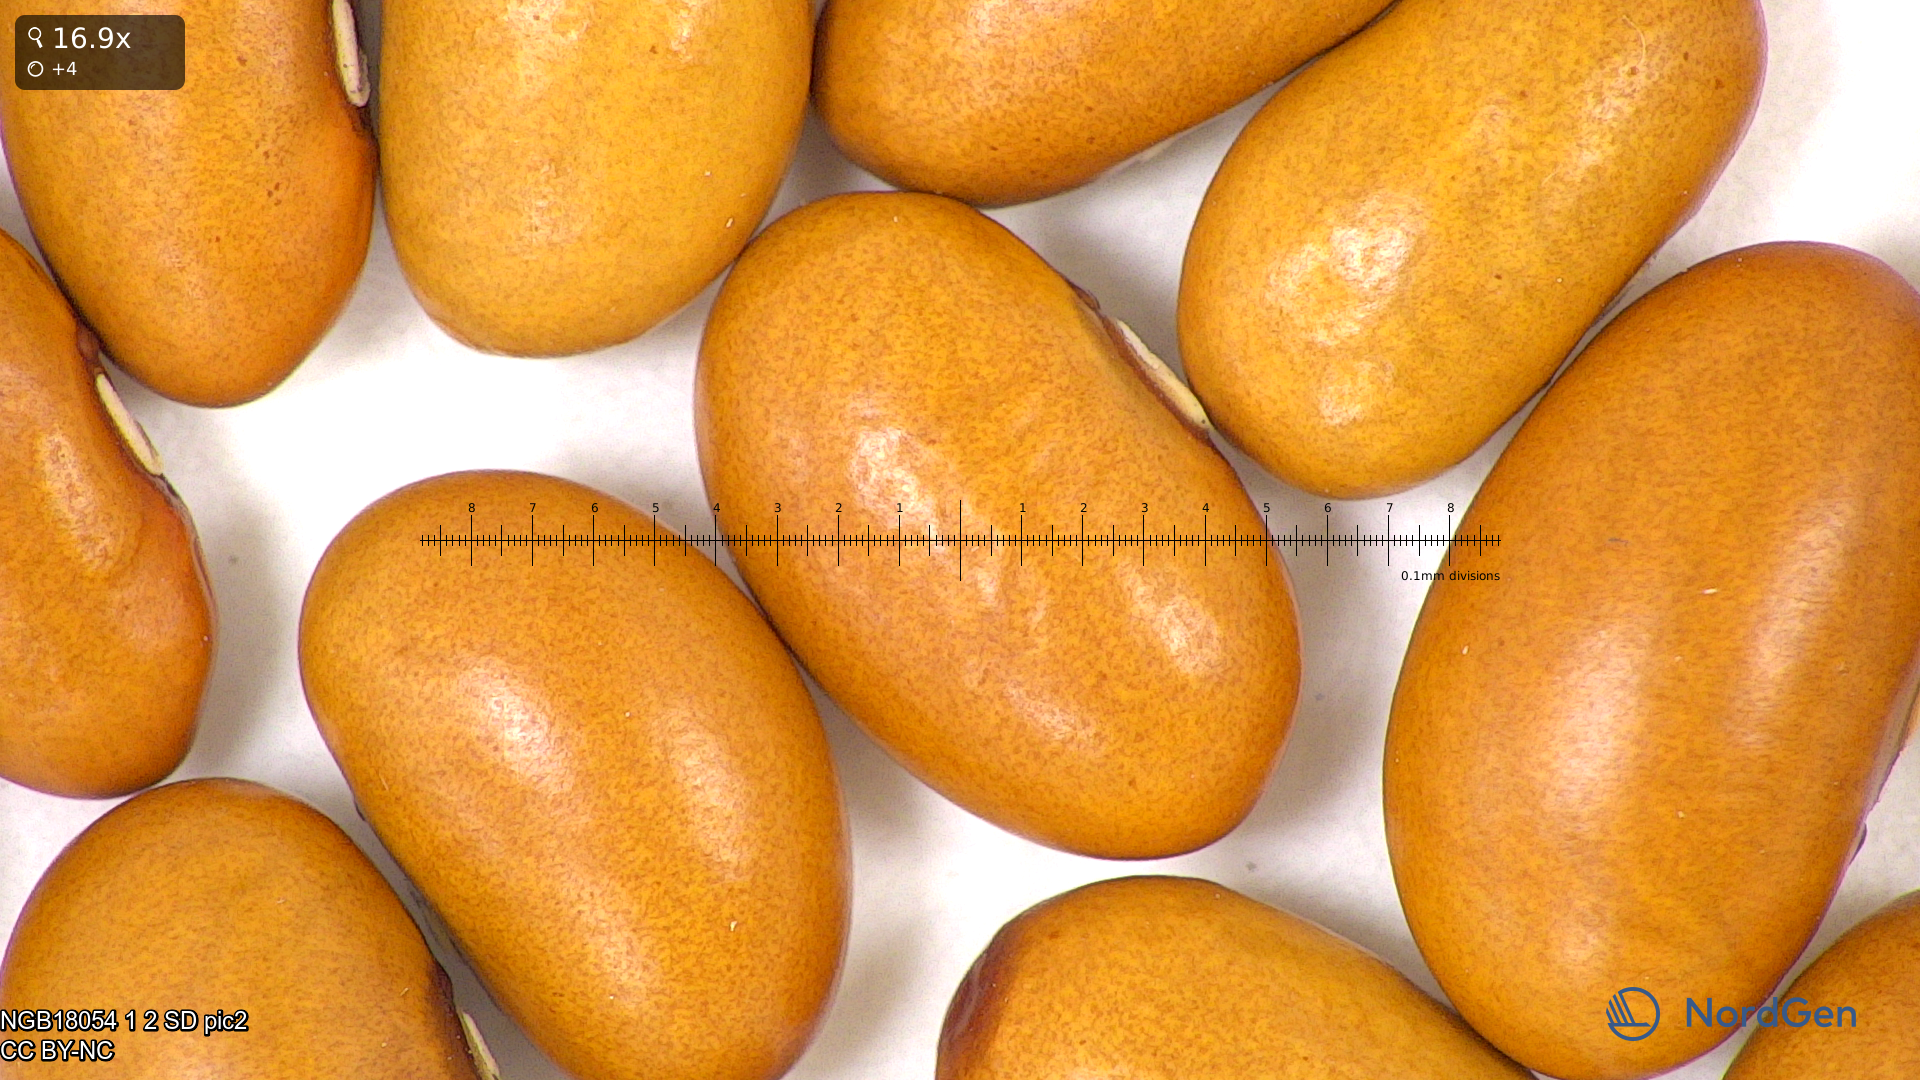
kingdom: Plantae
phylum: Tracheophyta
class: Magnoliopsida
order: Fabales
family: Fabaceae
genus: Phaseolus
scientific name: Phaseolus vulgaris
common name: Bean
